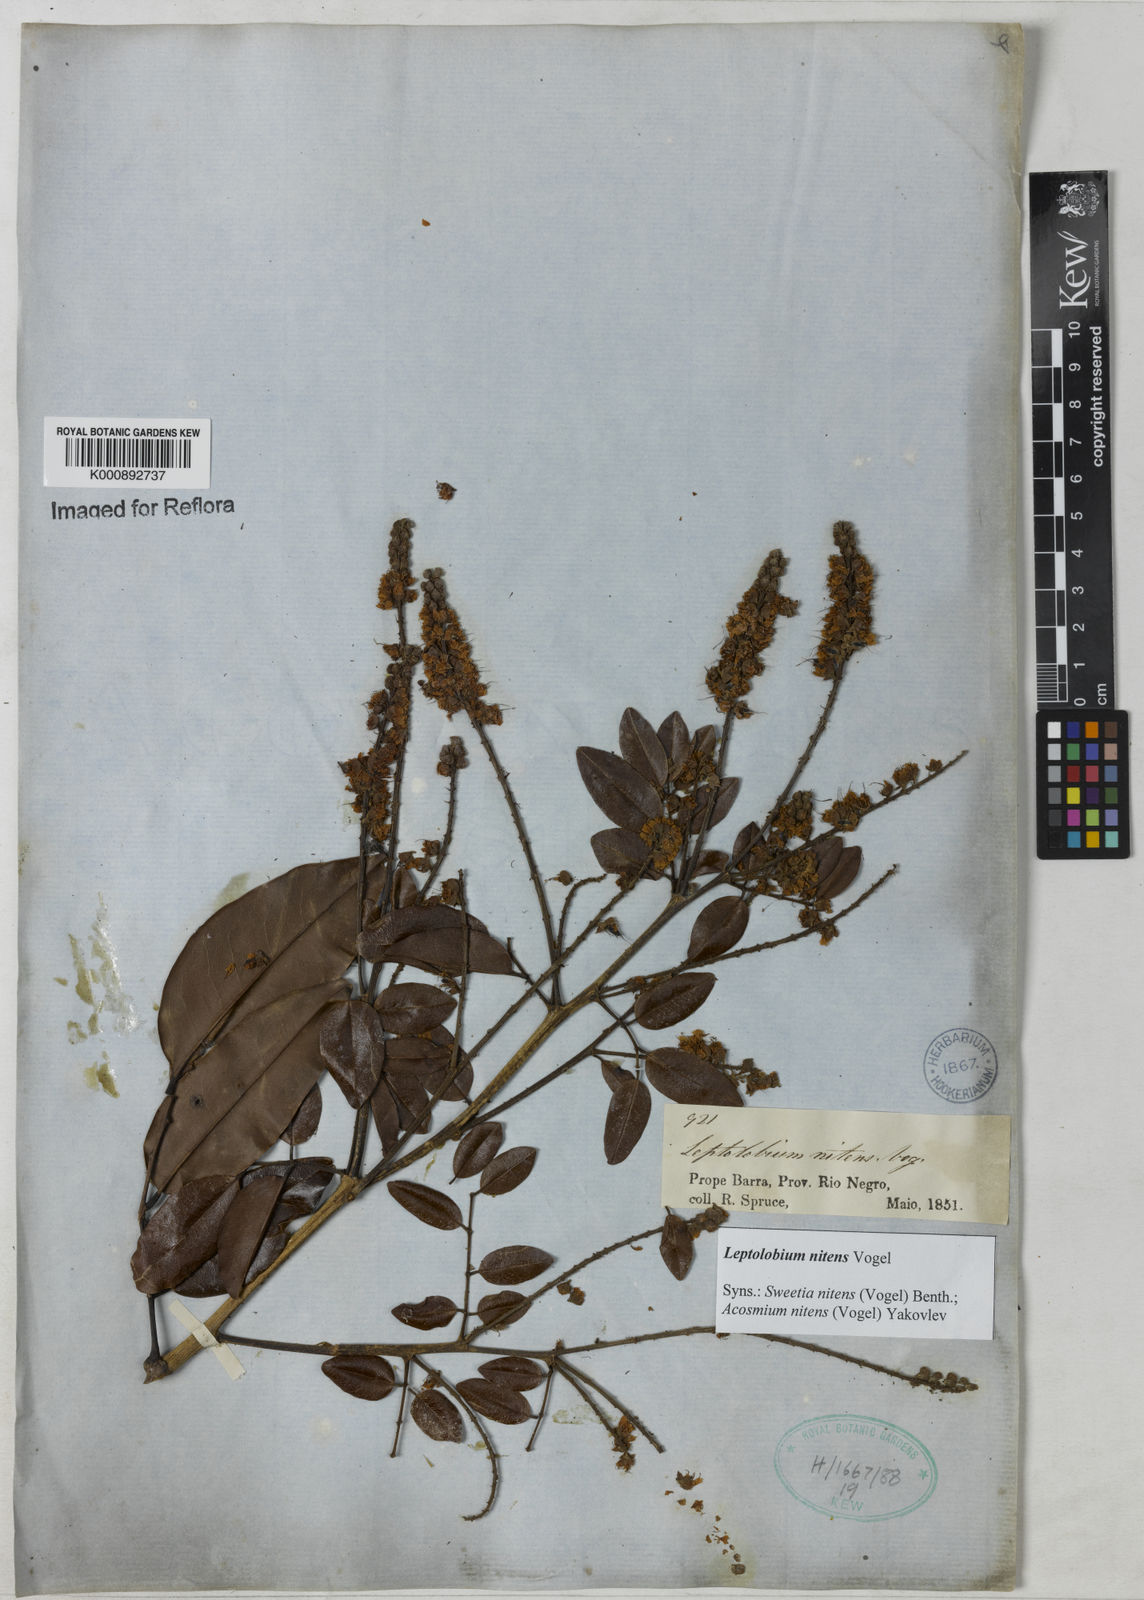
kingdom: Plantae
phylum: Tracheophyta
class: Magnoliopsida
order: Fabales
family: Fabaceae
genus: Leptolobium
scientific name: Leptolobium nitens
